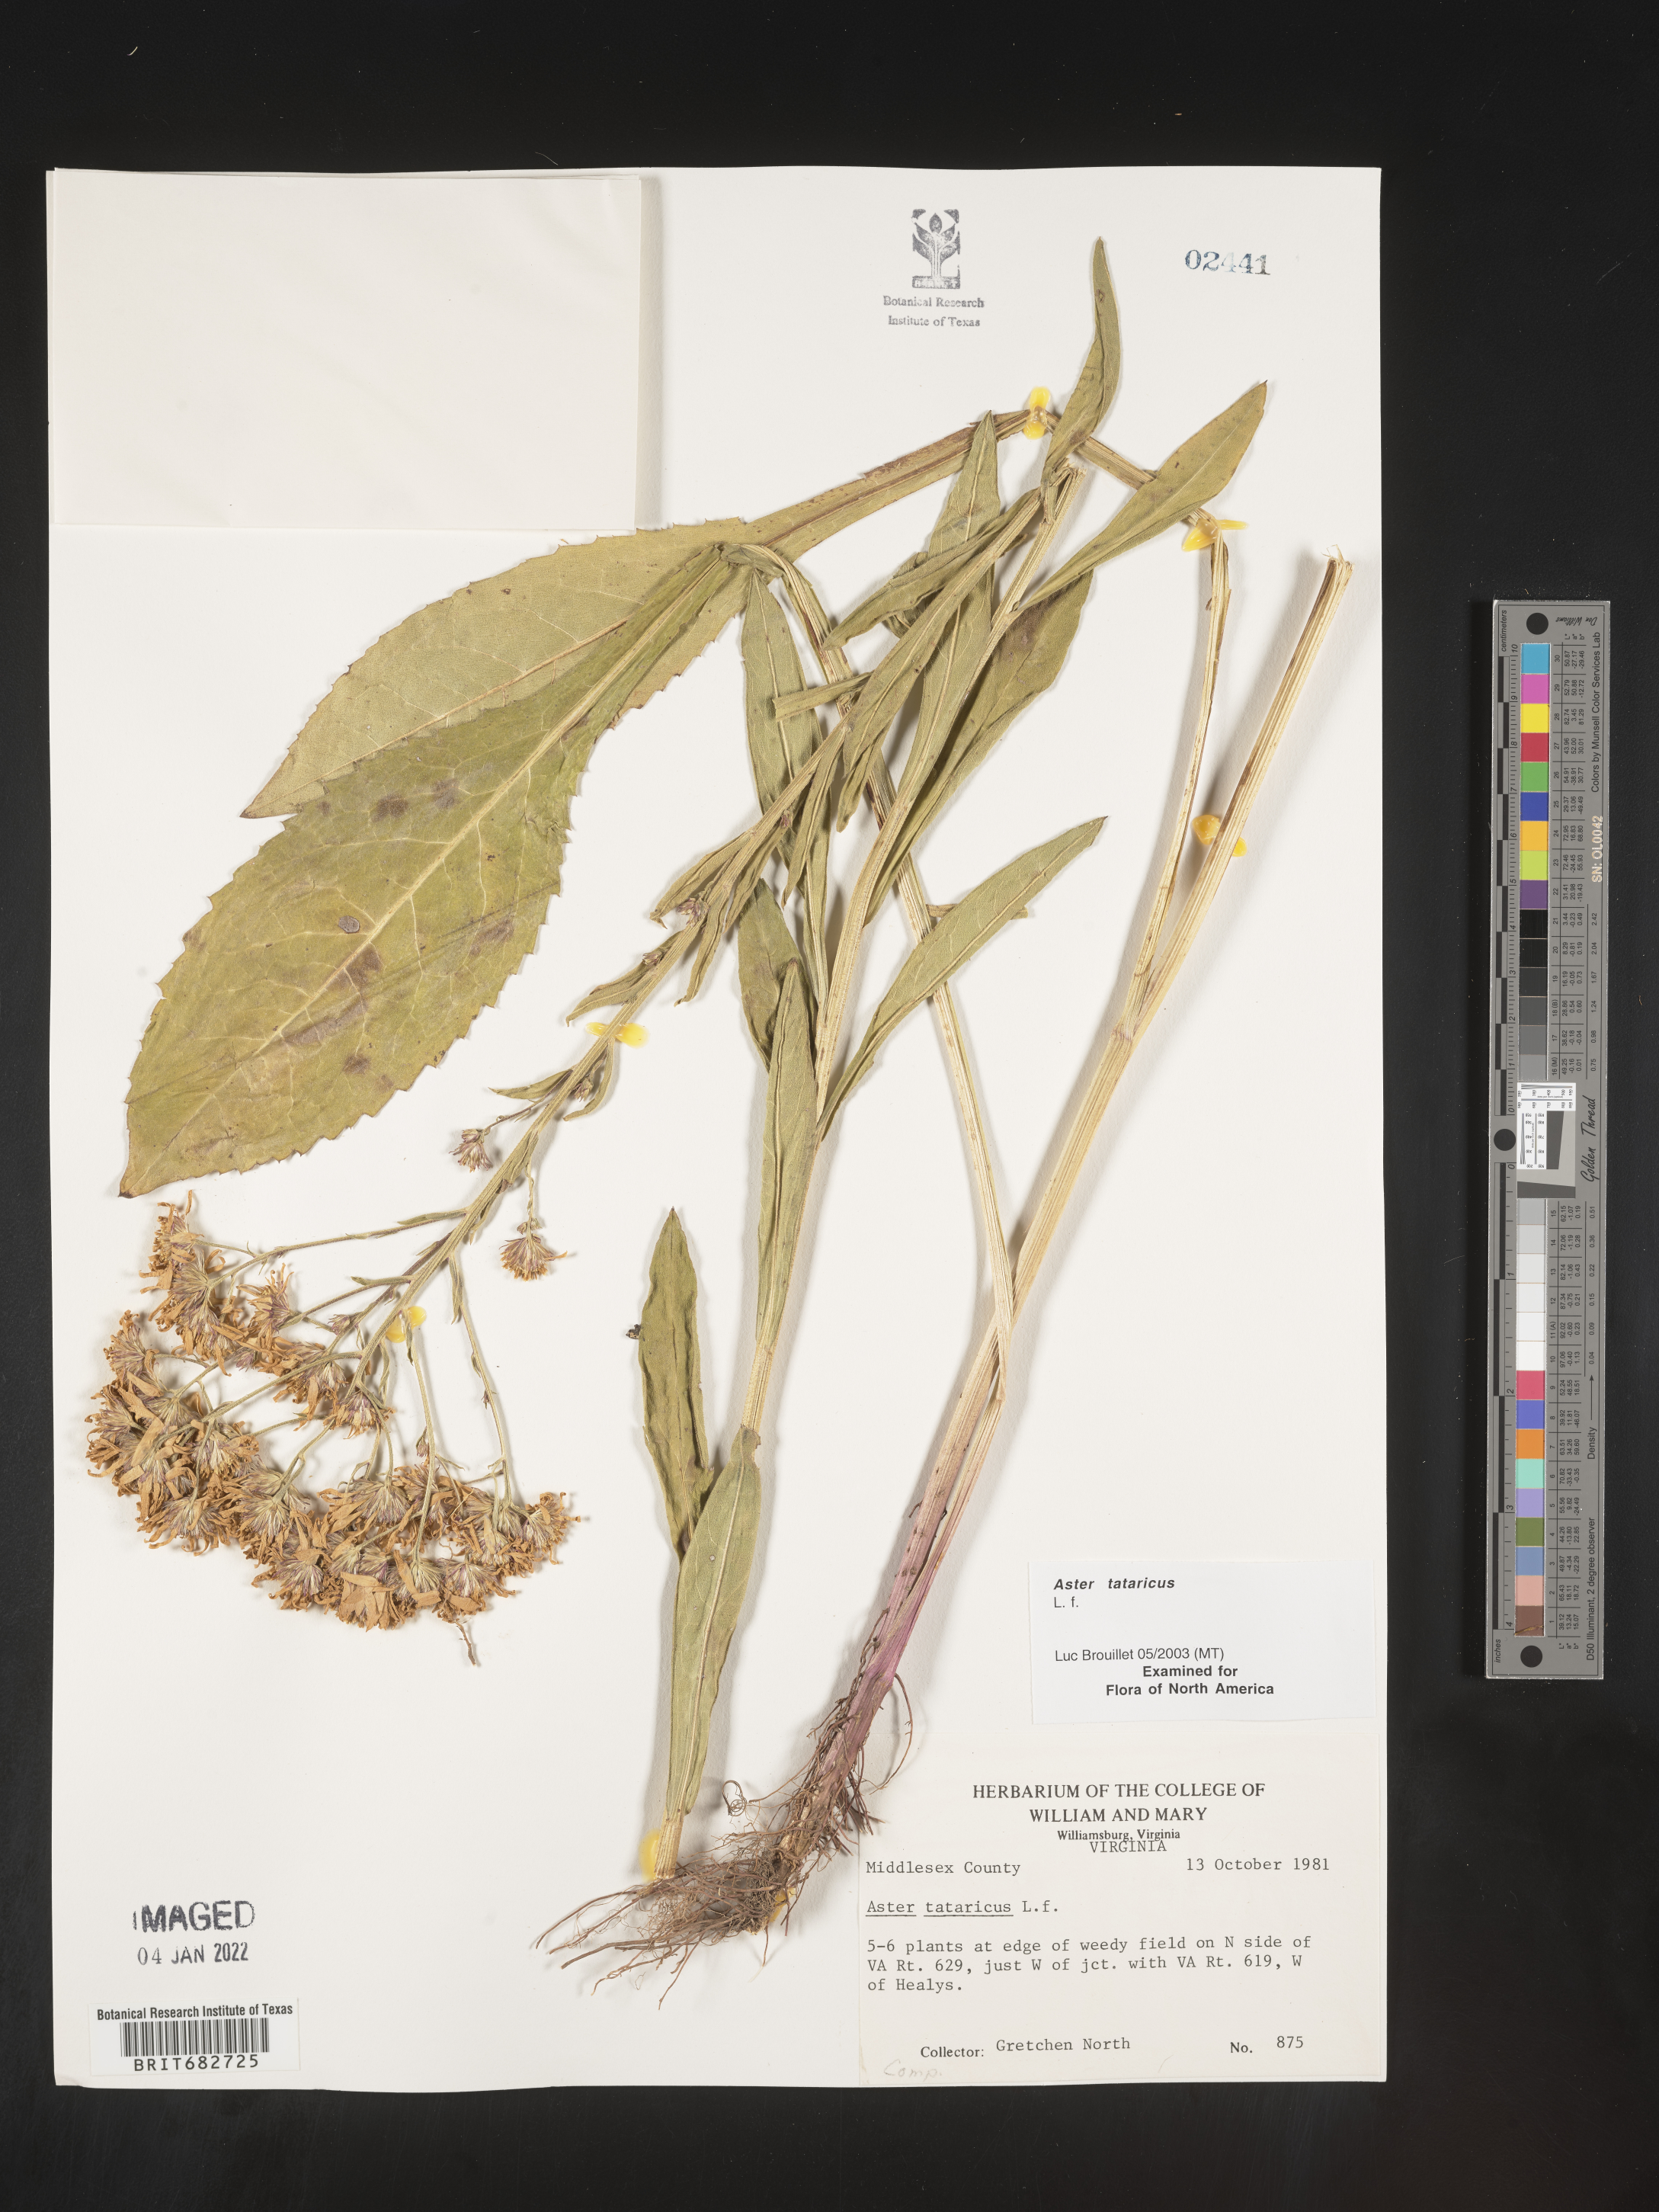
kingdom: Plantae
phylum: Tracheophyta
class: Magnoliopsida
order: Asterales
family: Asteraceae
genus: Aster
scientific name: Aster tataricus
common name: Tatarian aster
